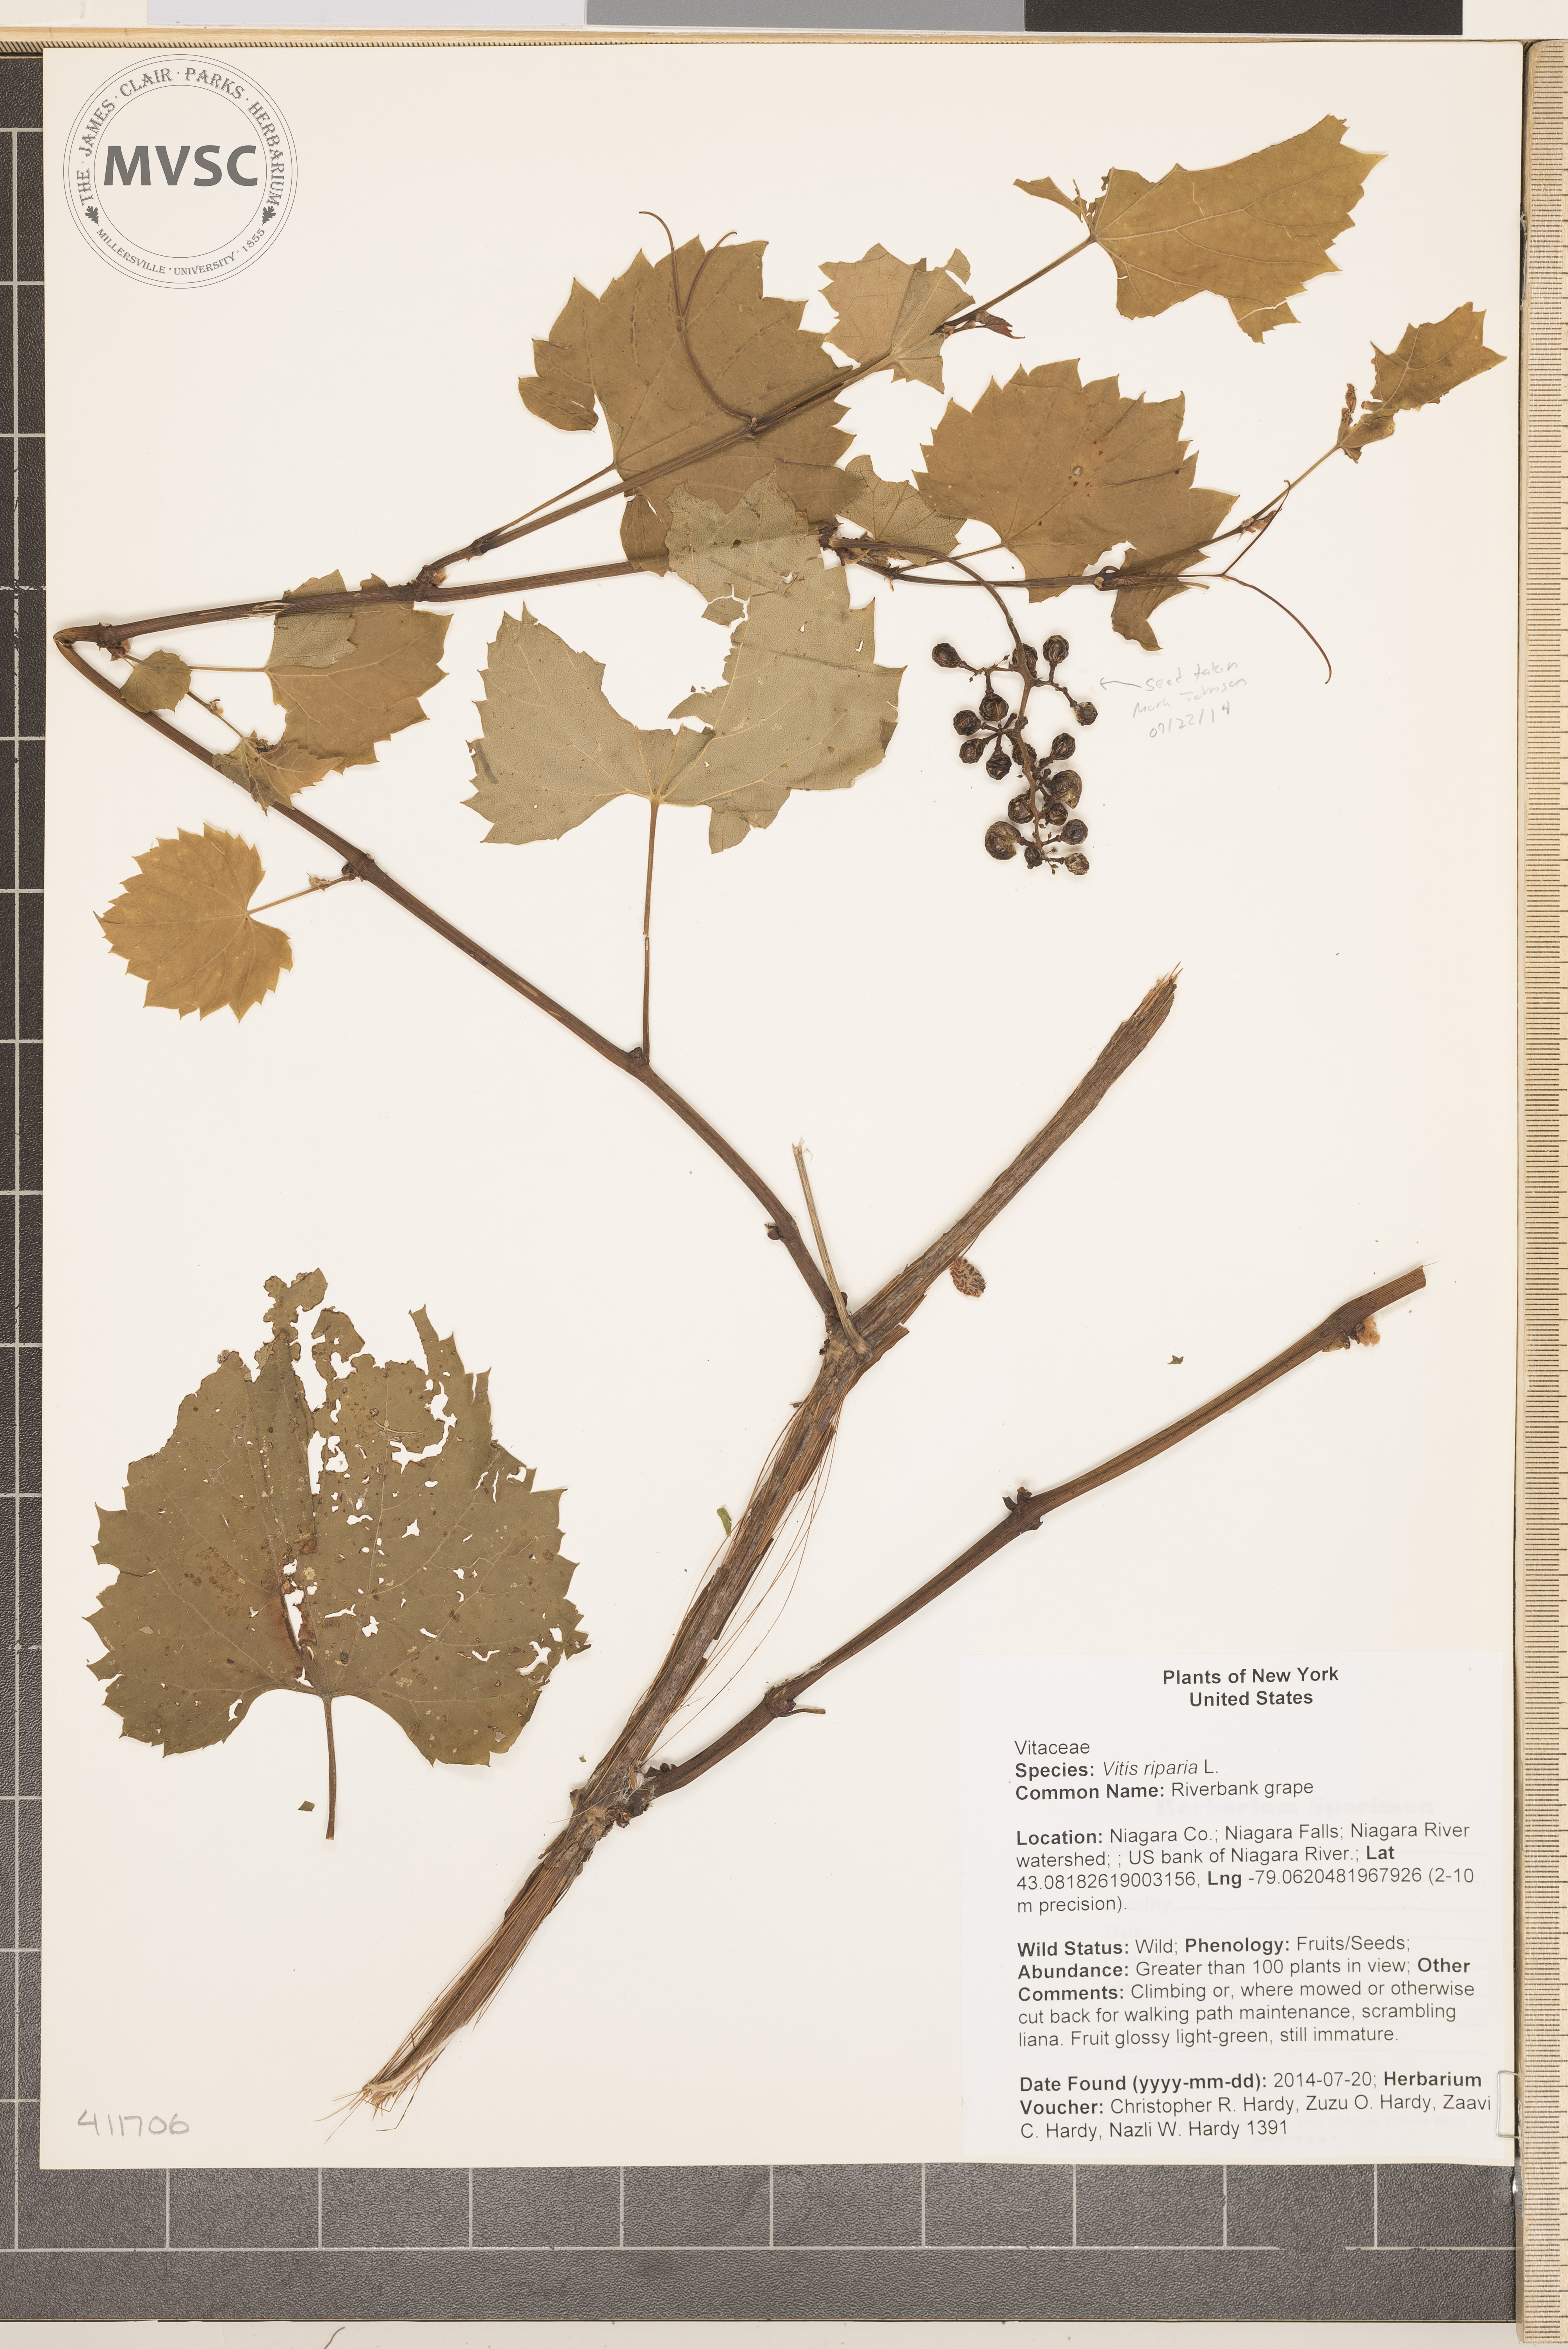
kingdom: Plantae
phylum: Tracheophyta
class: Magnoliopsida
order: Vitales
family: Vitaceae
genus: Vitis
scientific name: Vitis riparia
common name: Riverbank grape
